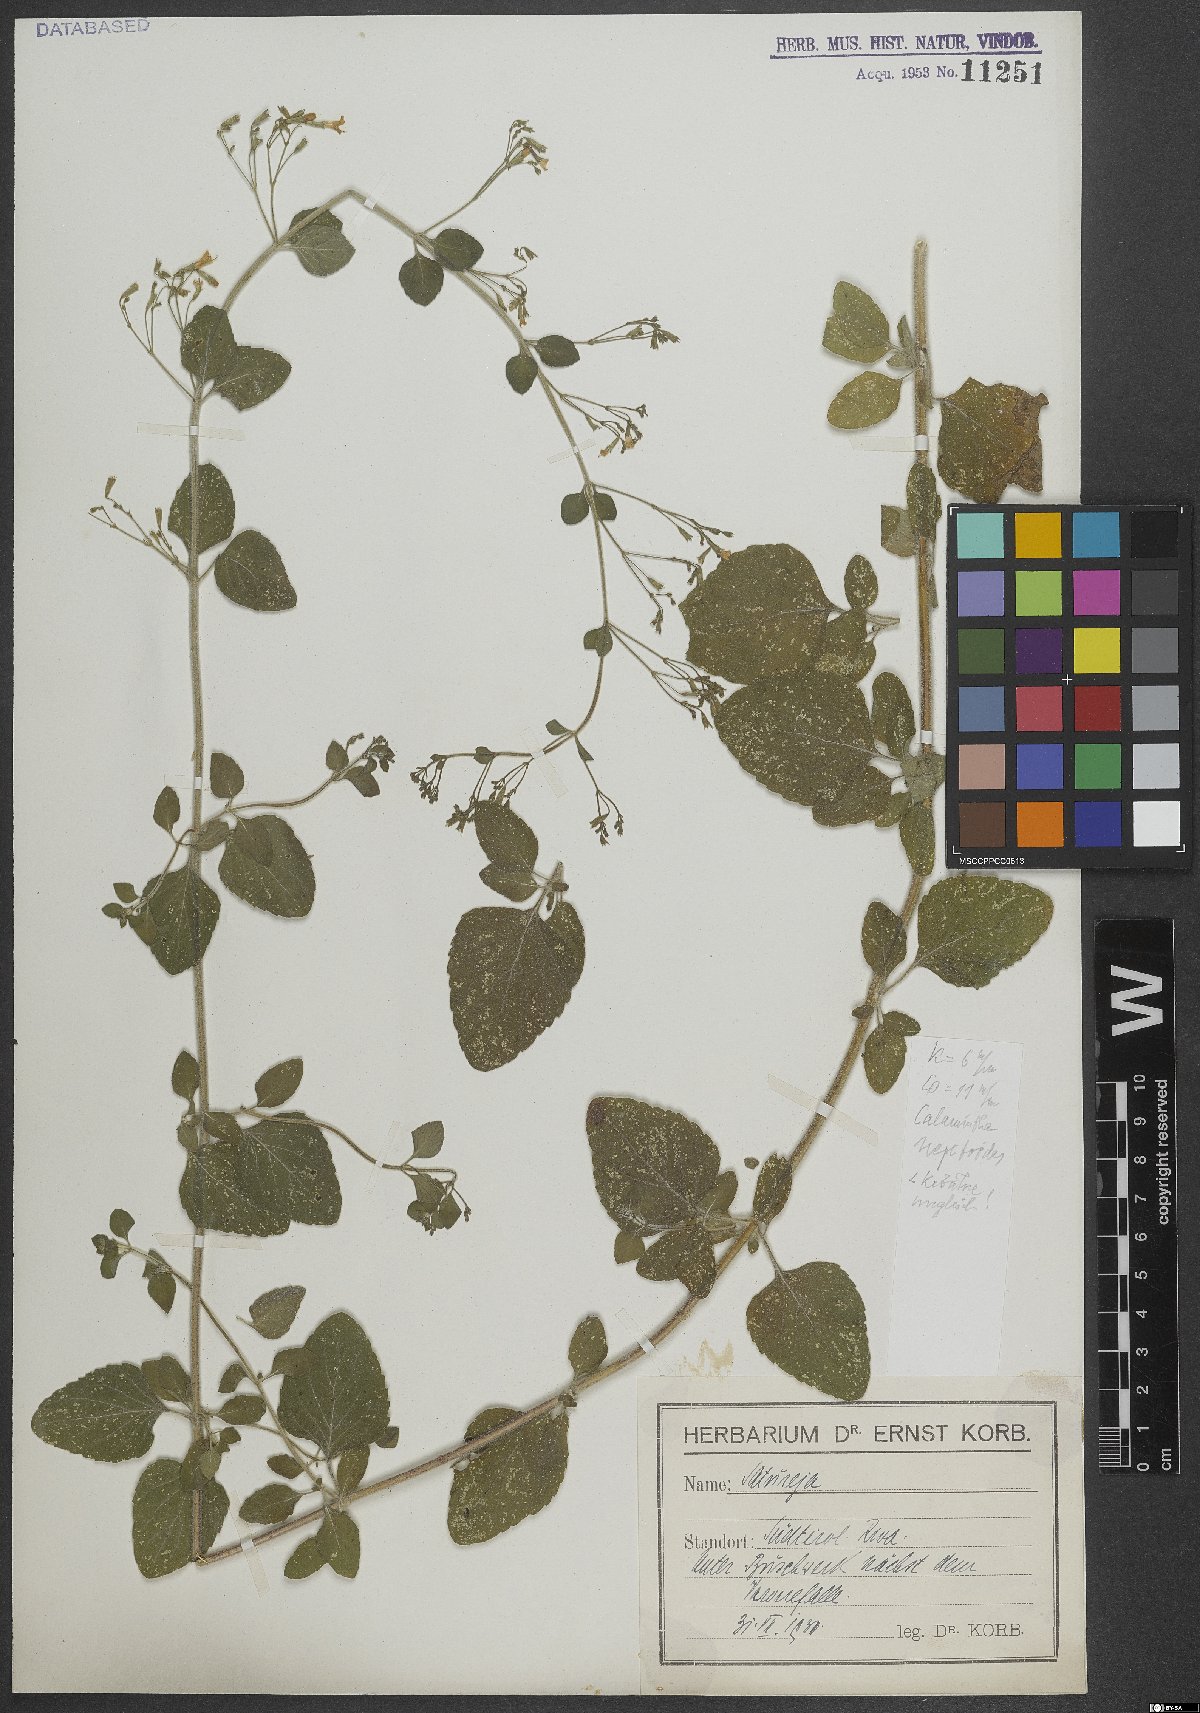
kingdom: Plantae
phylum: Tracheophyta
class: Magnoliopsida
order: Lamiales
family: Lamiaceae
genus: Clinopodium
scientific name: Clinopodium nepeta
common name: Lesser calamint
